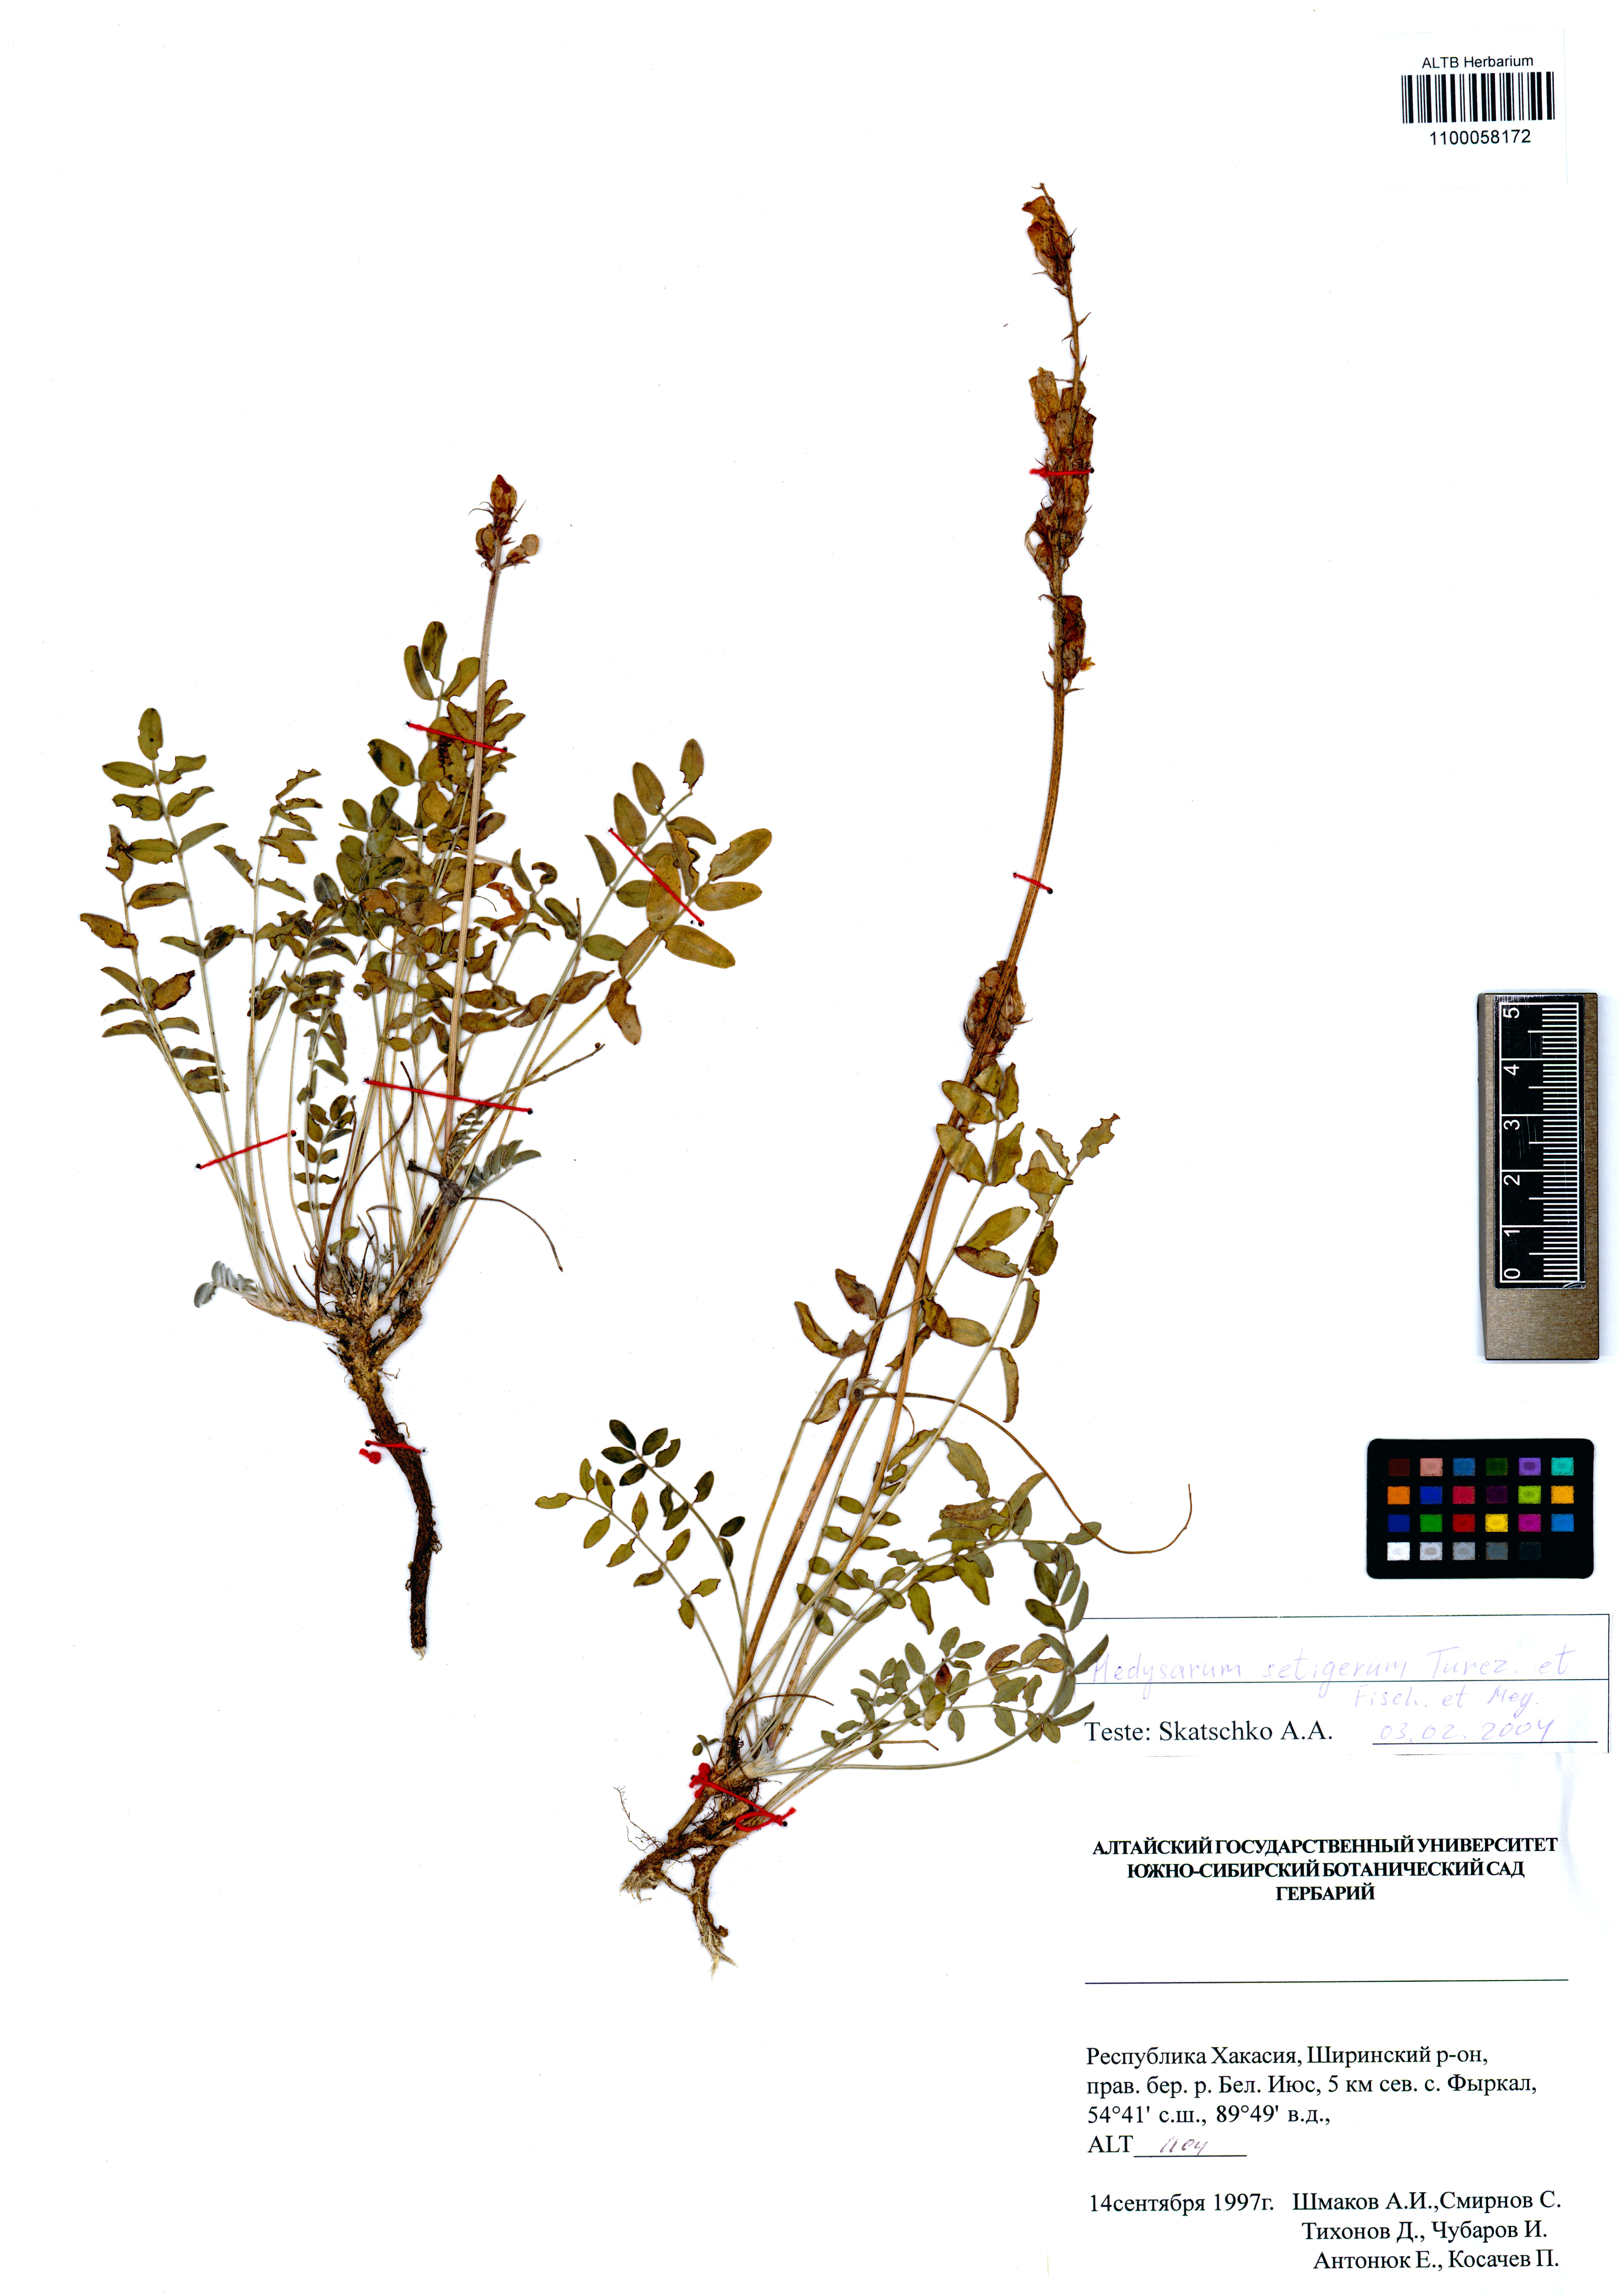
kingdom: Plantae
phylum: Tracheophyta
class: Magnoliopsida
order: Fabales
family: Fabaceae
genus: Hedysarum
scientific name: Hedysarum setigerum
